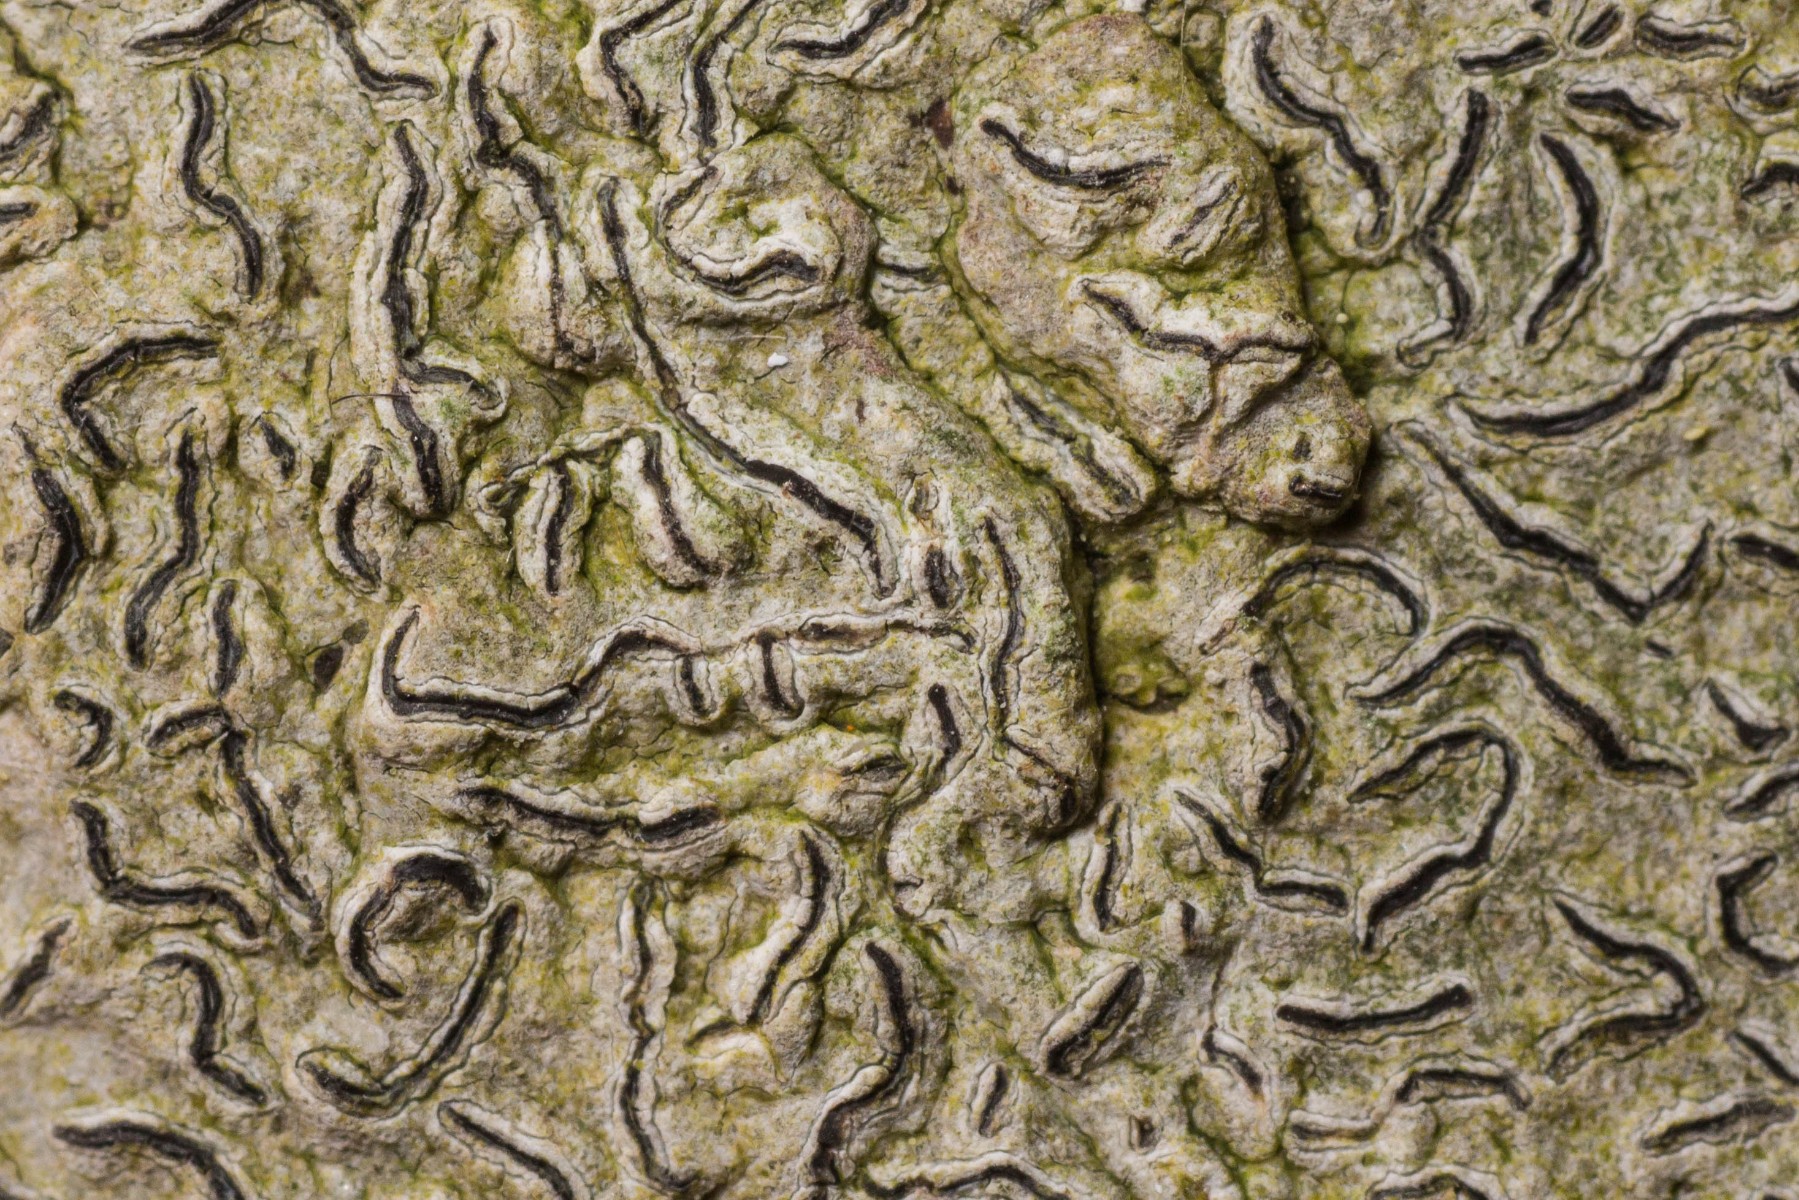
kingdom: Fungi
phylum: Ascomycota
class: Lecanoromycetes
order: Ostropales
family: Graphidaceae
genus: Graphis
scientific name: Graphis scripta
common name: almindelig skriftlav
